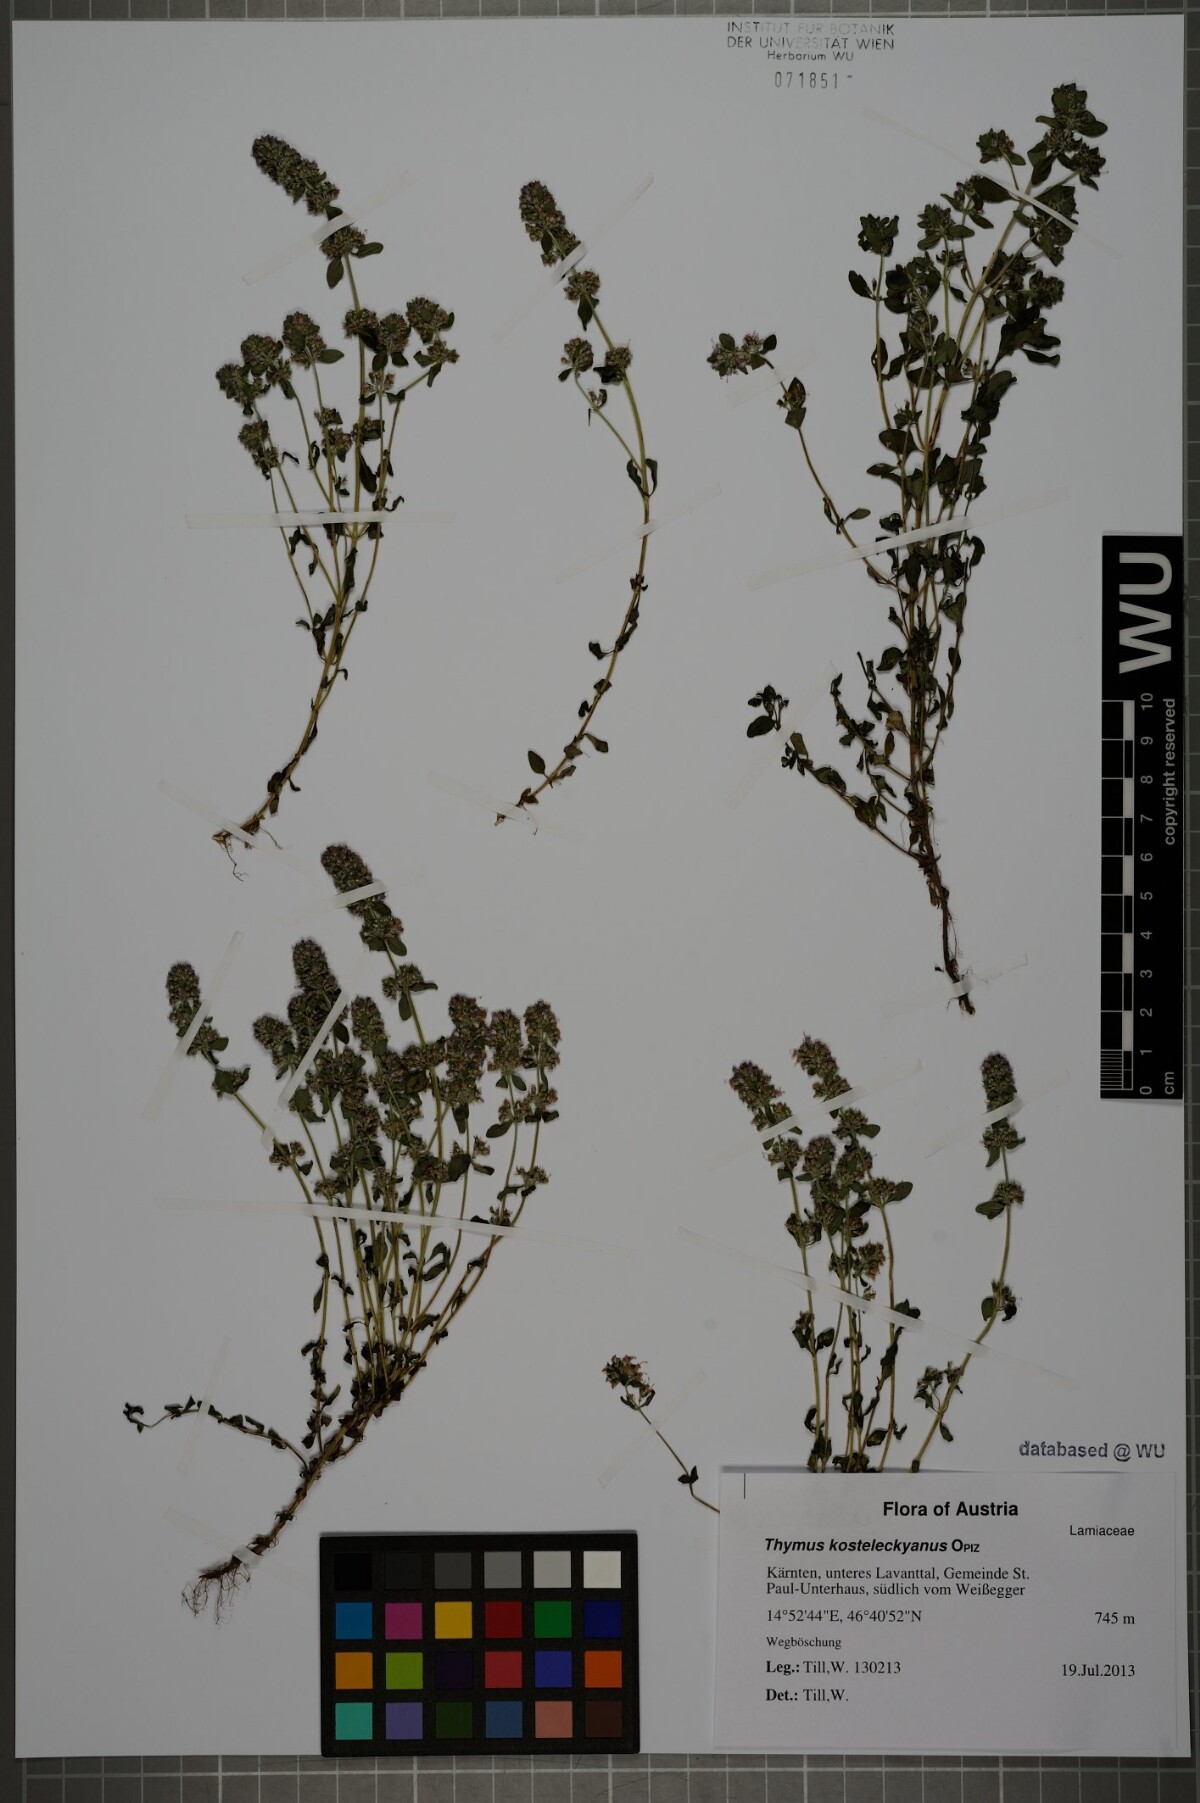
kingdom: Plantae
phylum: Tracheophyta
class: Magnoliopsida
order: Lamiales
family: Lamiaceae
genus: Thymus
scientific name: Thymus pulegioides
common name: Large thyme
